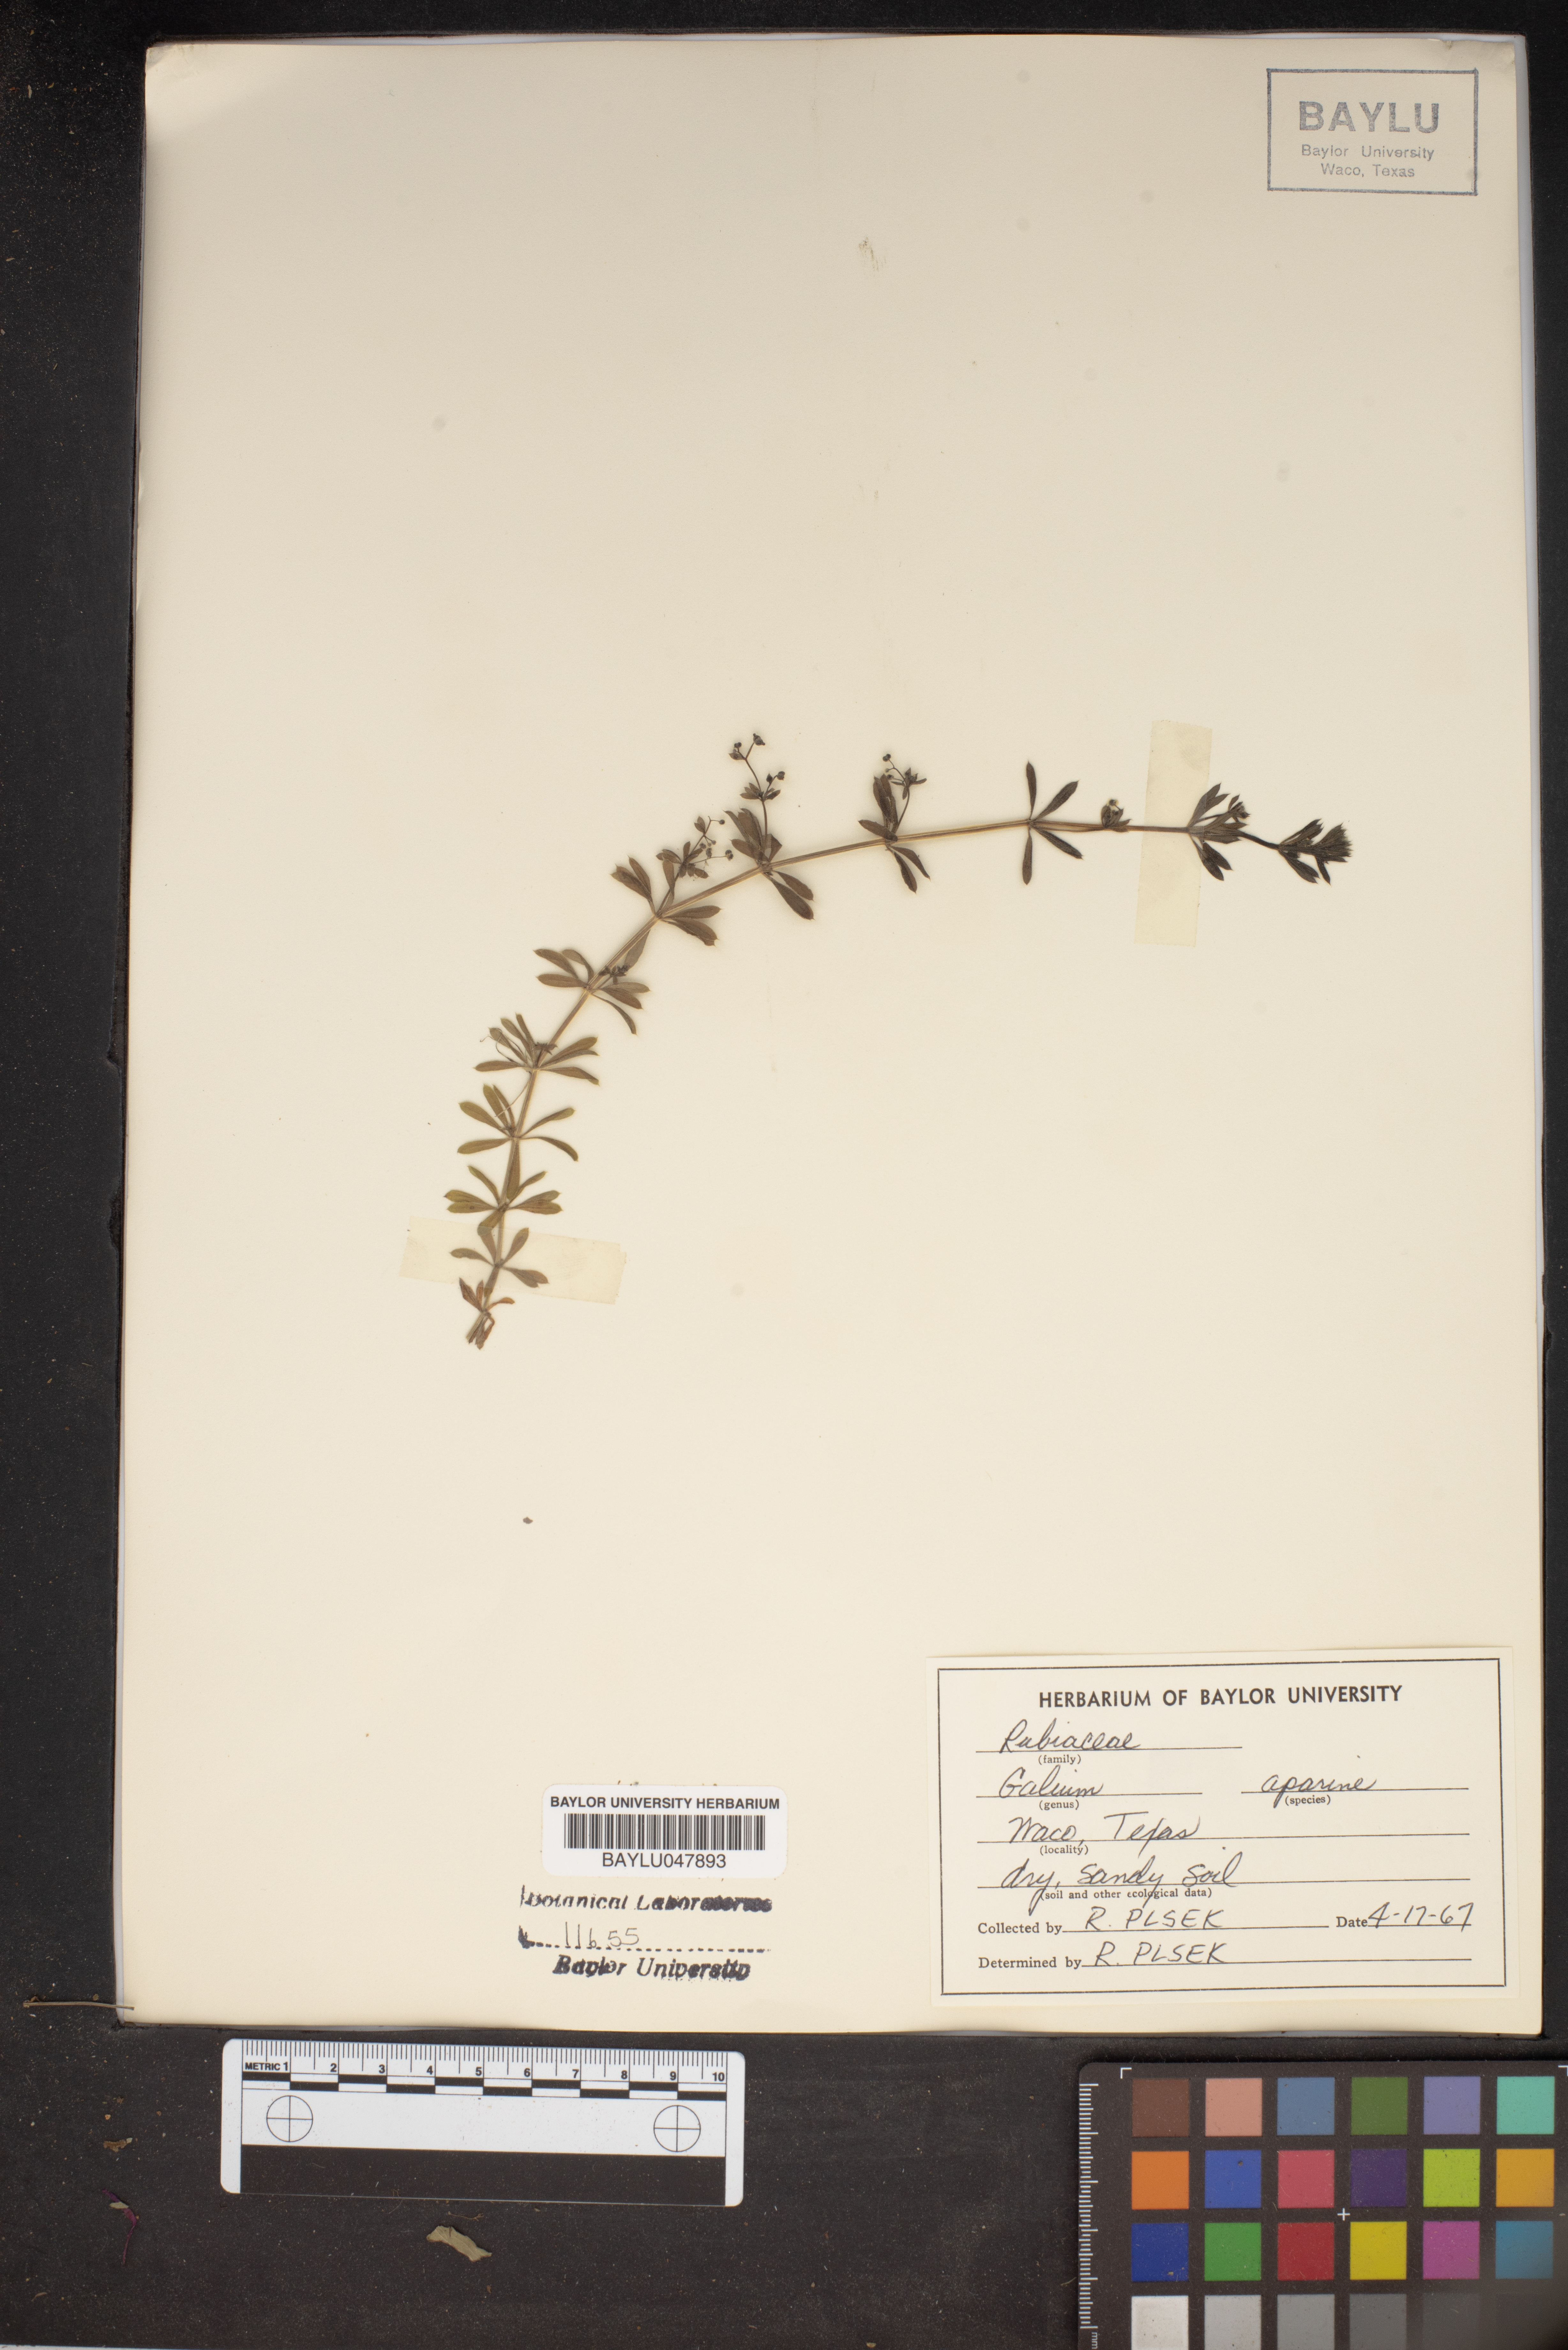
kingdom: Plantae
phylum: Tracheophyta
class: Magnoliopsida
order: Gentianales
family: Rubiaceae
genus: Galium
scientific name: Galium aparine
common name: Cleavers
